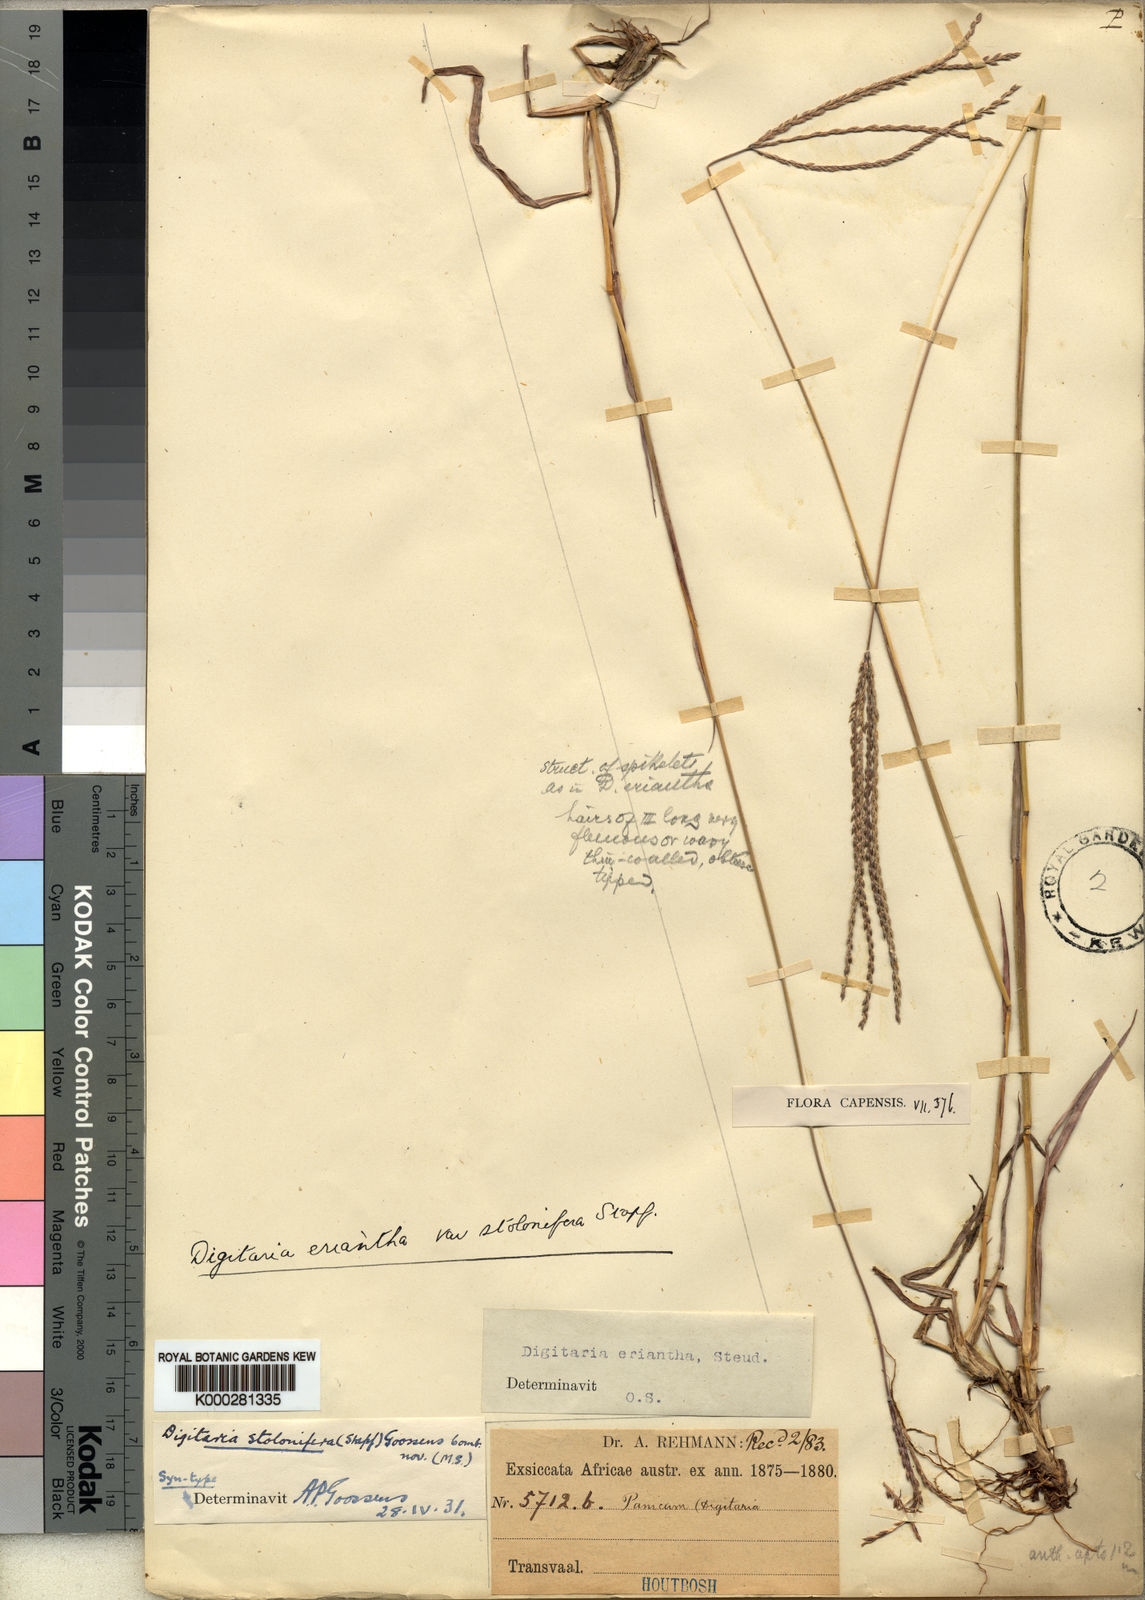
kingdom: Plantae
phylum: Tracheophyta
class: Liliopsida
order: Poales
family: Poaceae
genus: Digitaria
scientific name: Digitaria eriantha
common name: Digitgrass
